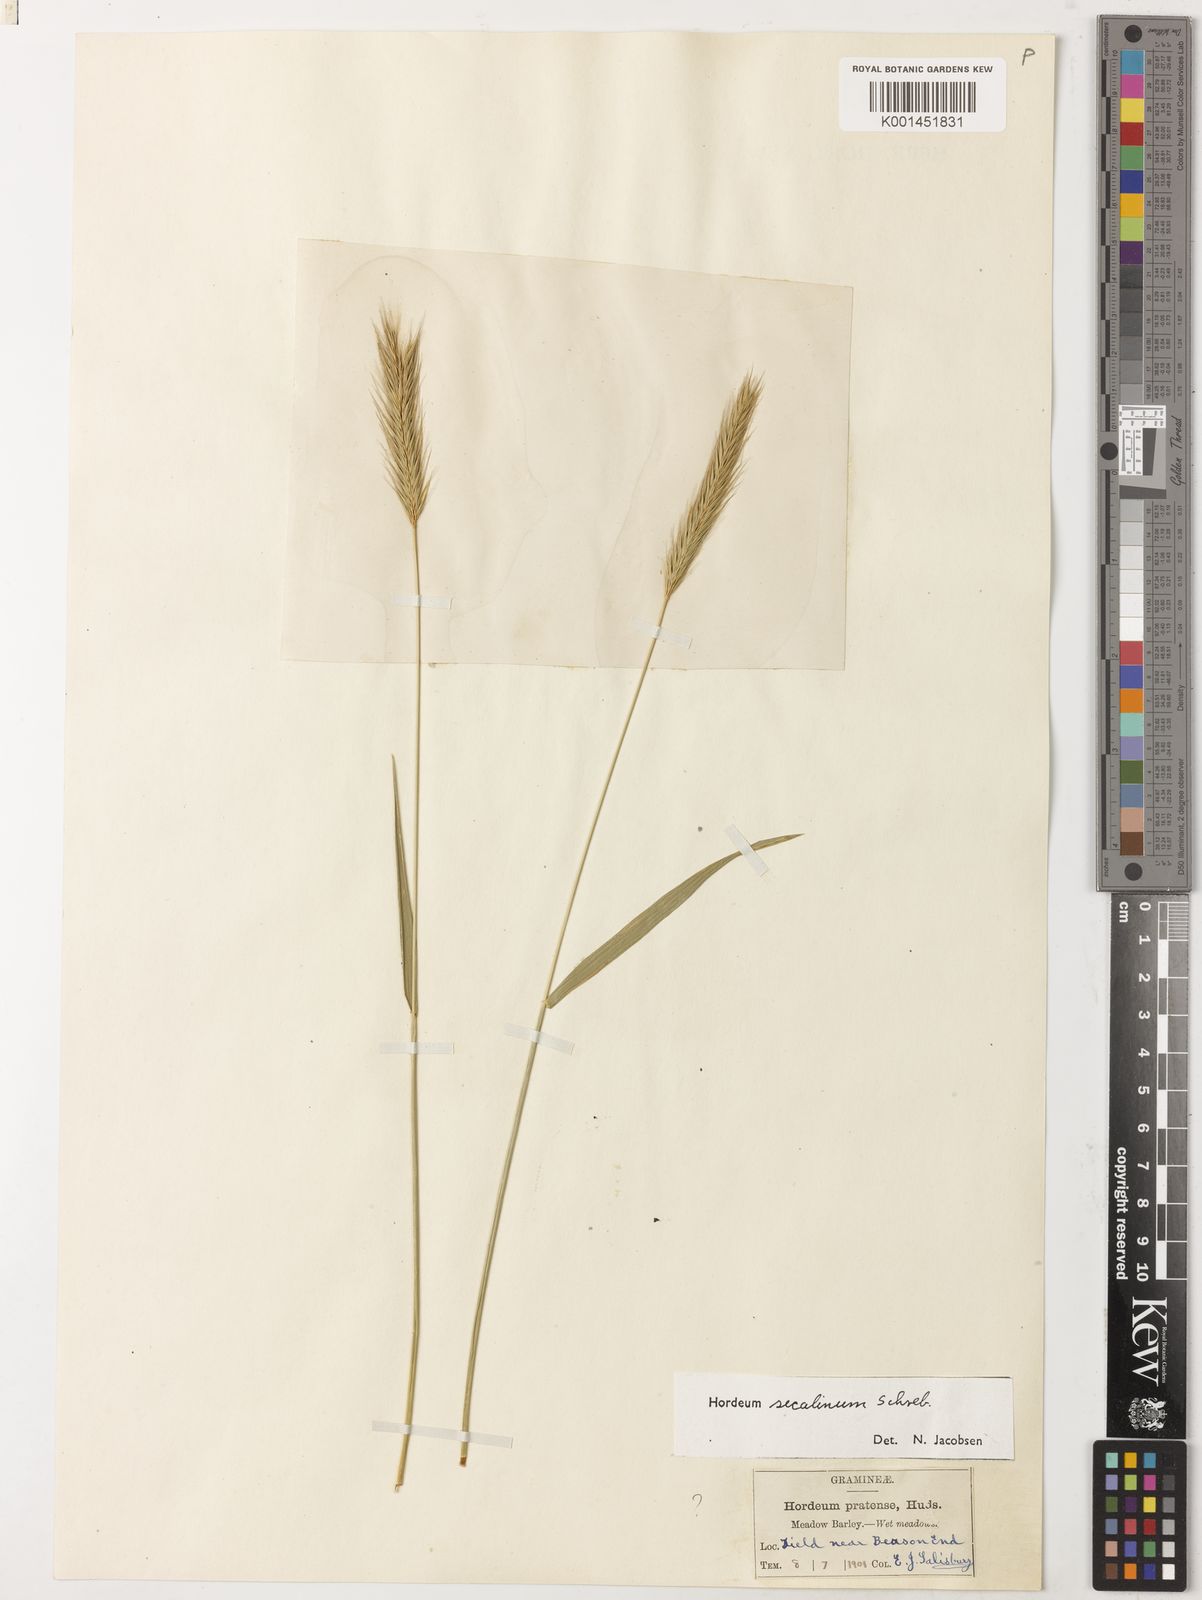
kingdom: Plantae
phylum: Tracheophyta
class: Liliopsida
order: Poales
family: Poaceae
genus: Hordeum
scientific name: Hordeum secalinum
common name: Meadow barley
